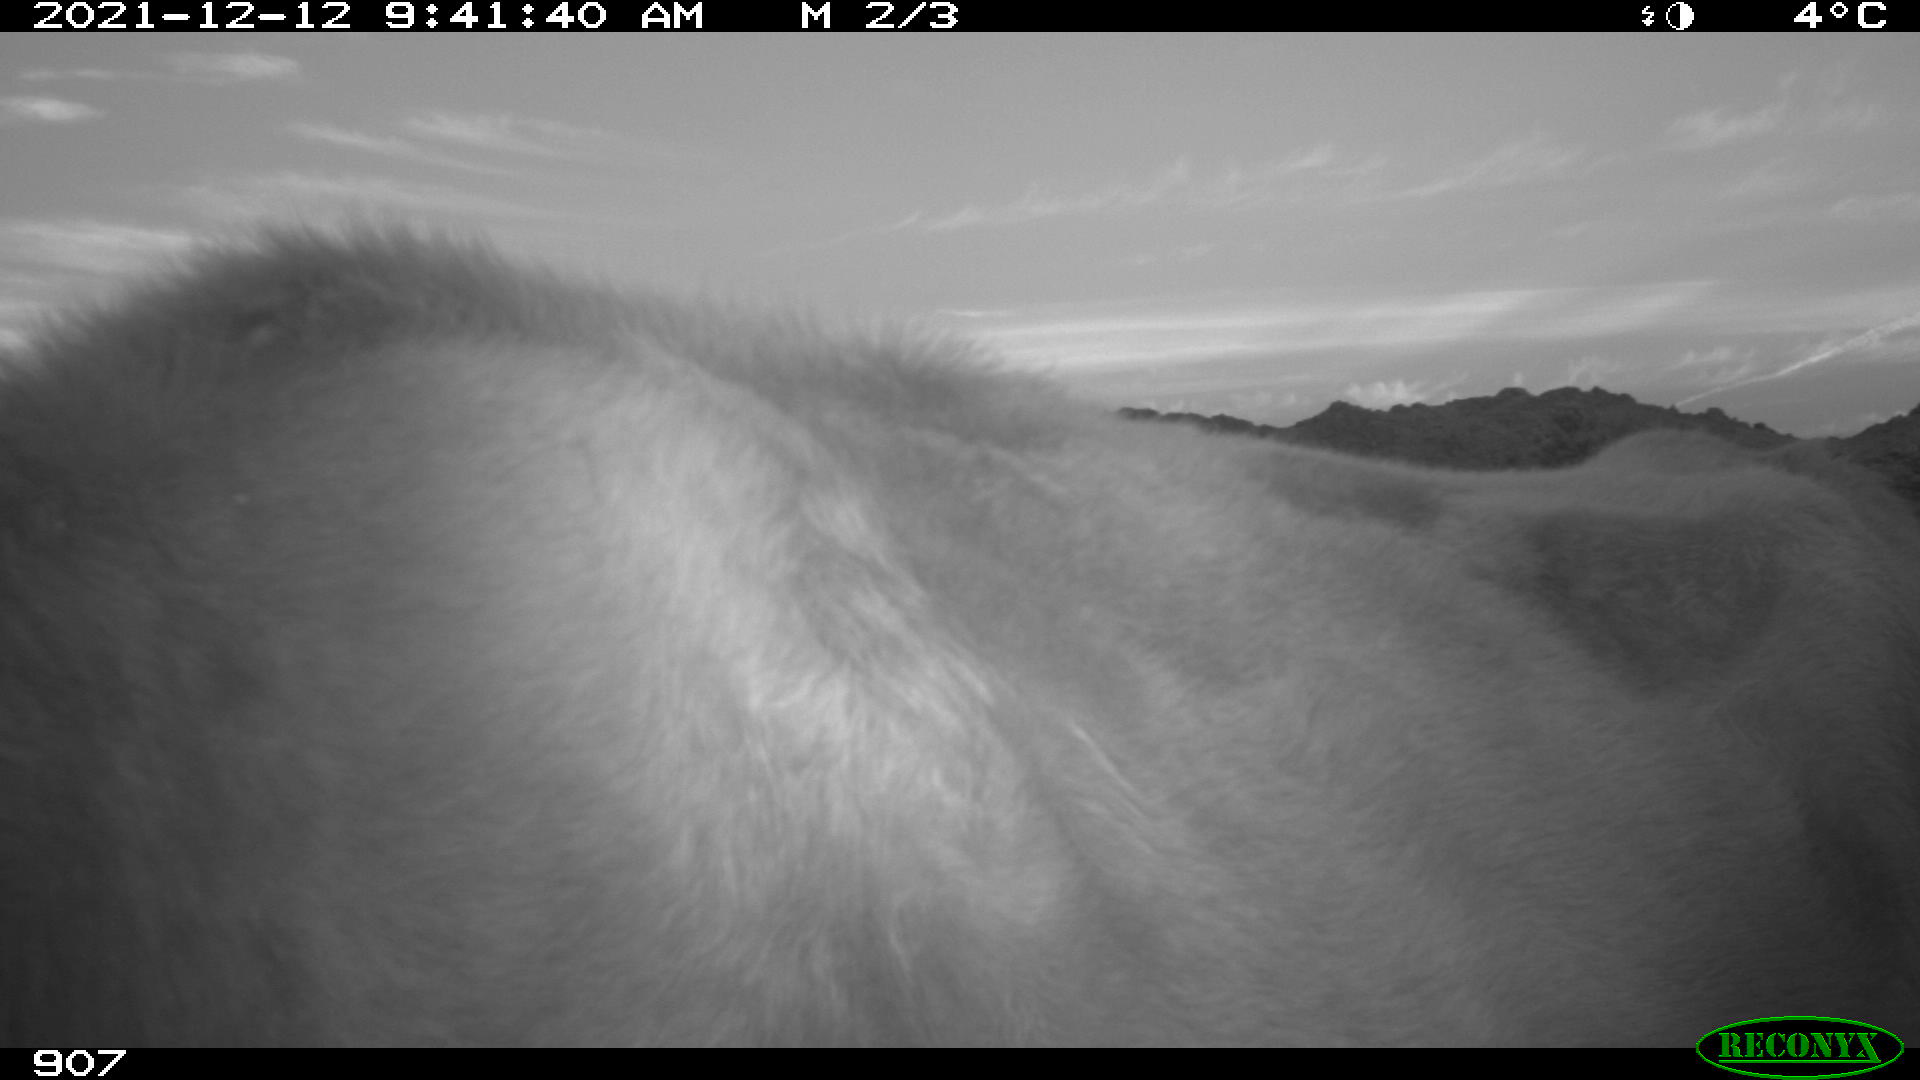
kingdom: Animalia
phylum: Chordata
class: Mammalia
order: Artiodactyla
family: Bovidae
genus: Bos
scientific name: Bos taurus
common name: Domesticated cattle
